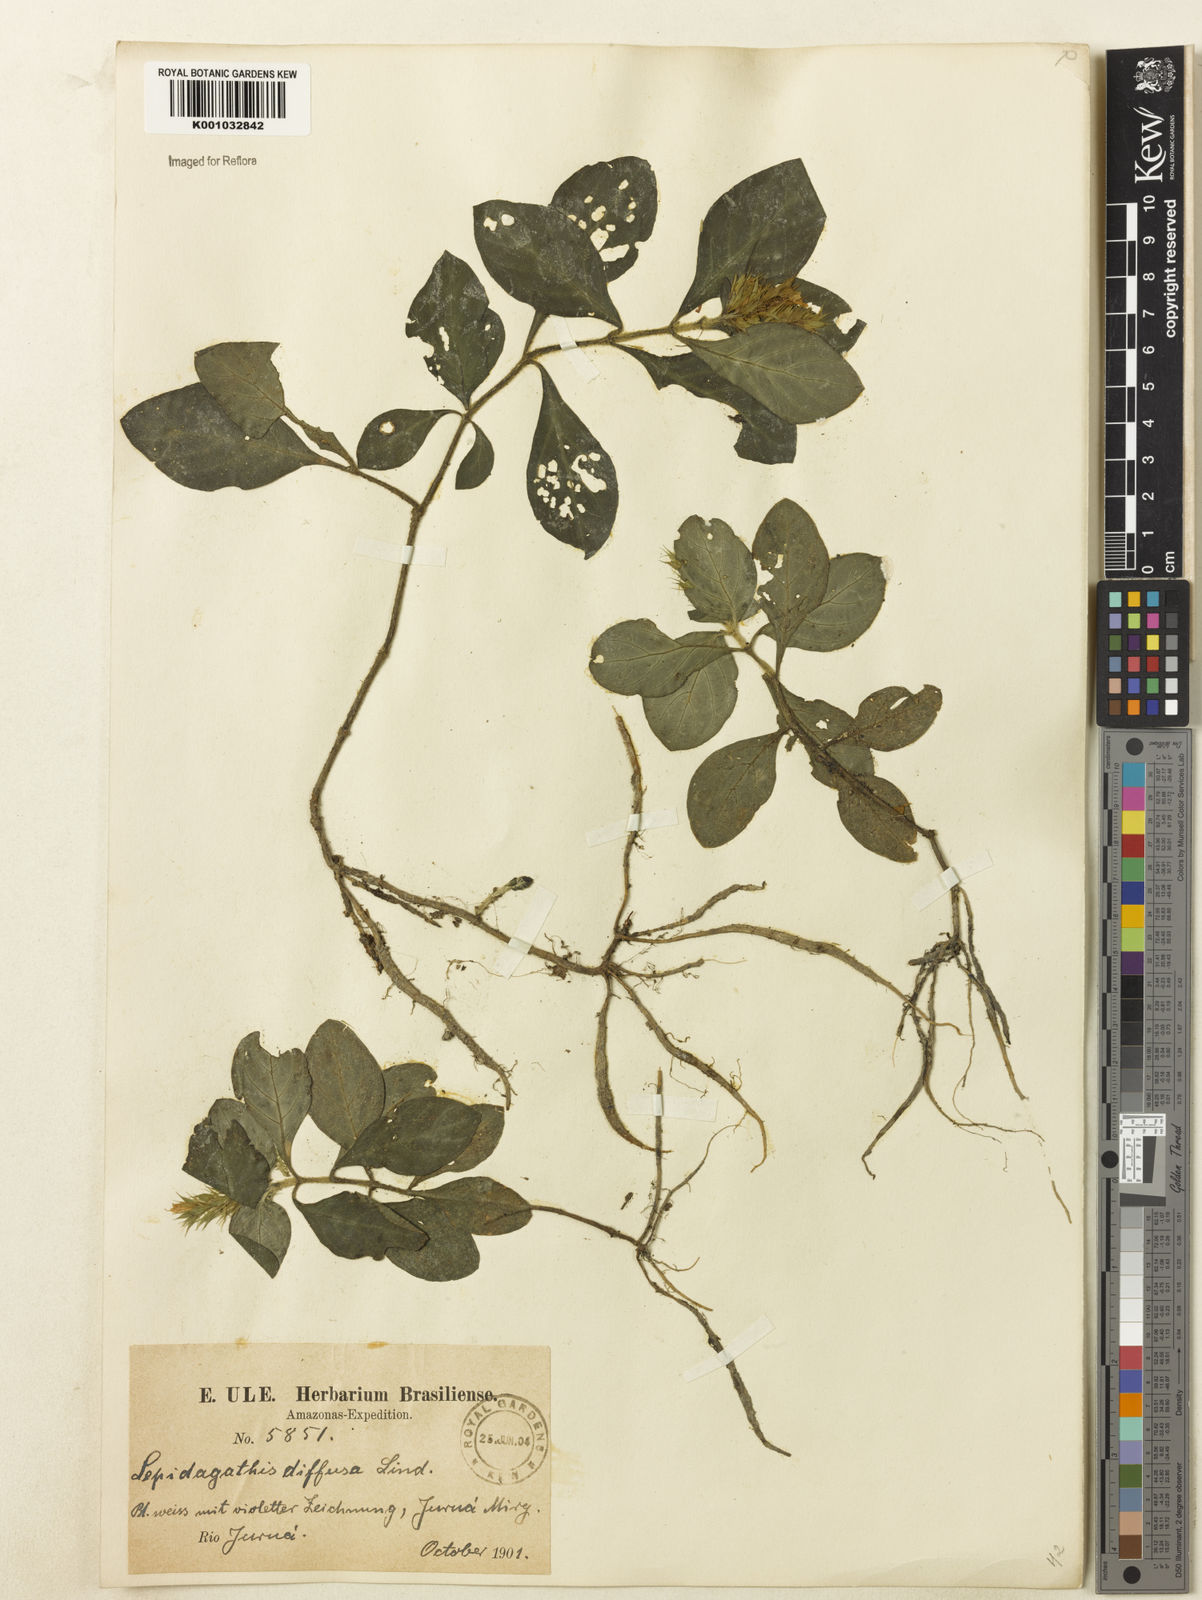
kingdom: Plantae
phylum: Tracheophyta
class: Magnoliopsida
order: Lamiales
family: Acanthaceae
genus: Lepidagathis
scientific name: Lepidagathis
